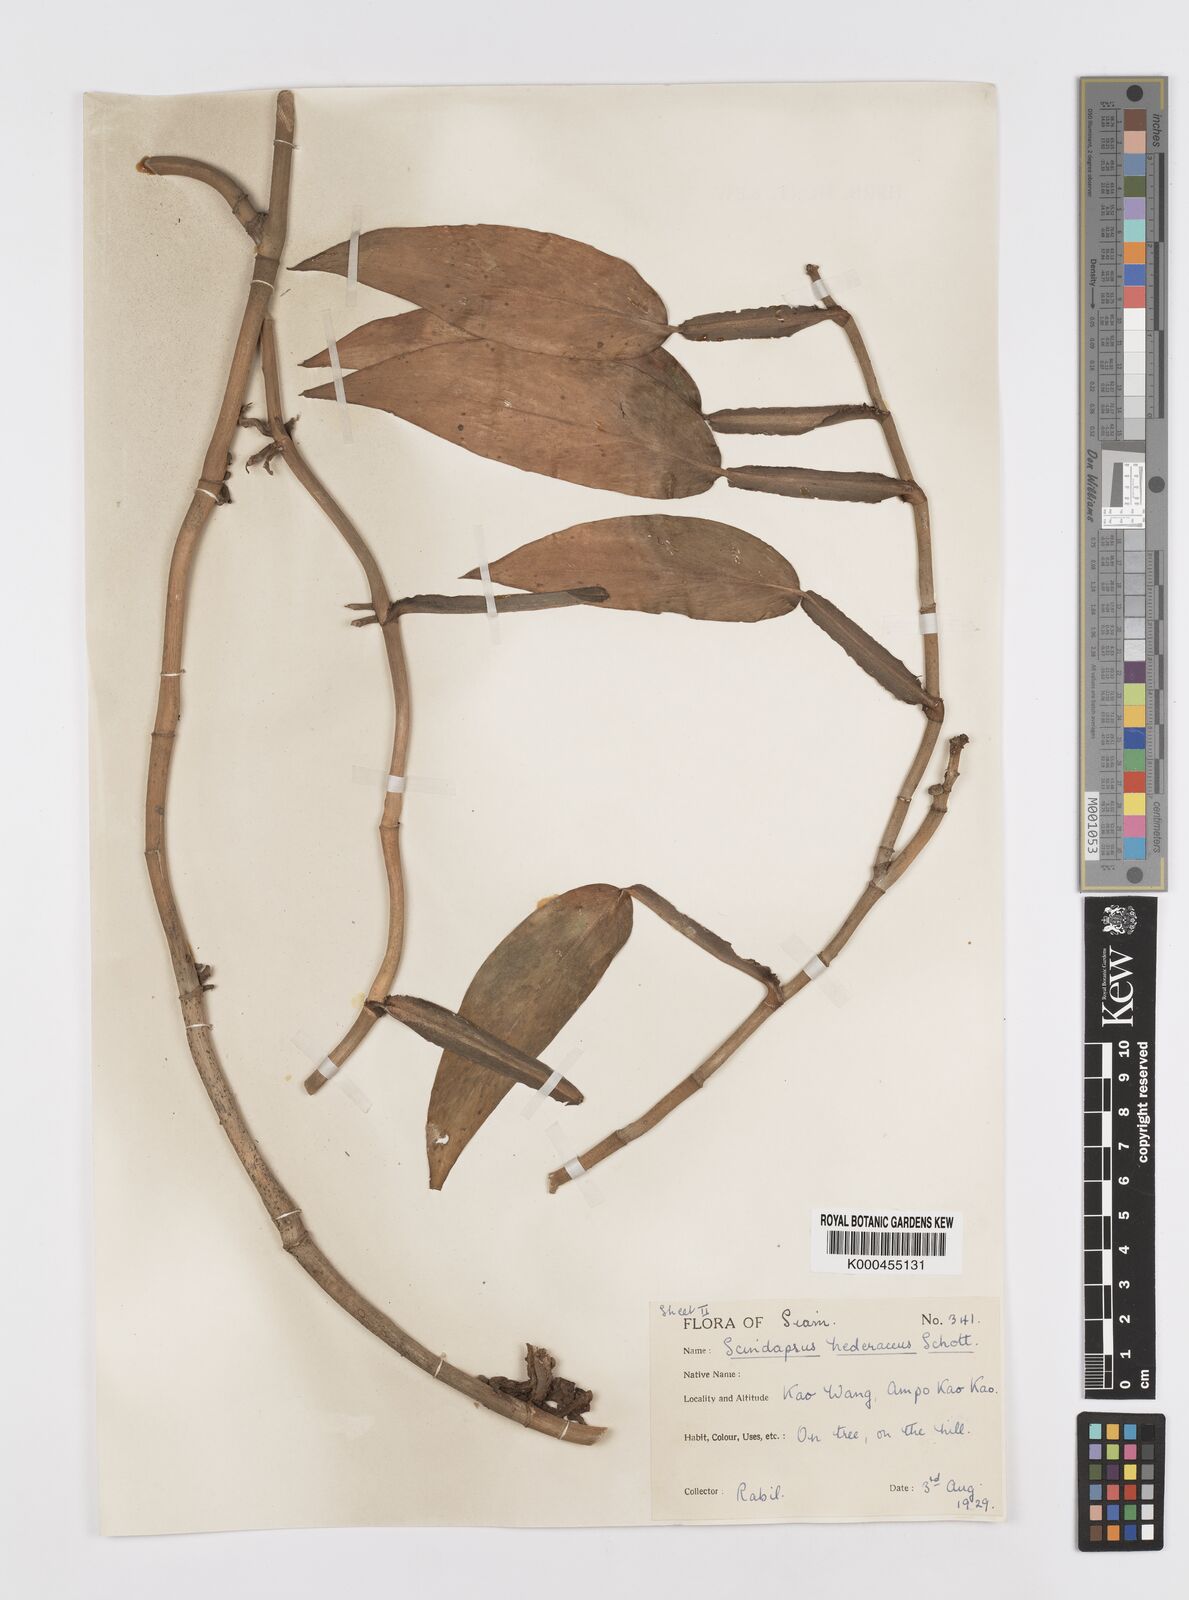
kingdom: Plantae
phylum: Tracheophyta
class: Liliopsida
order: Alismatales
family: Araceae
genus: Scindapsus
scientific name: Scindapsus hederaceus
